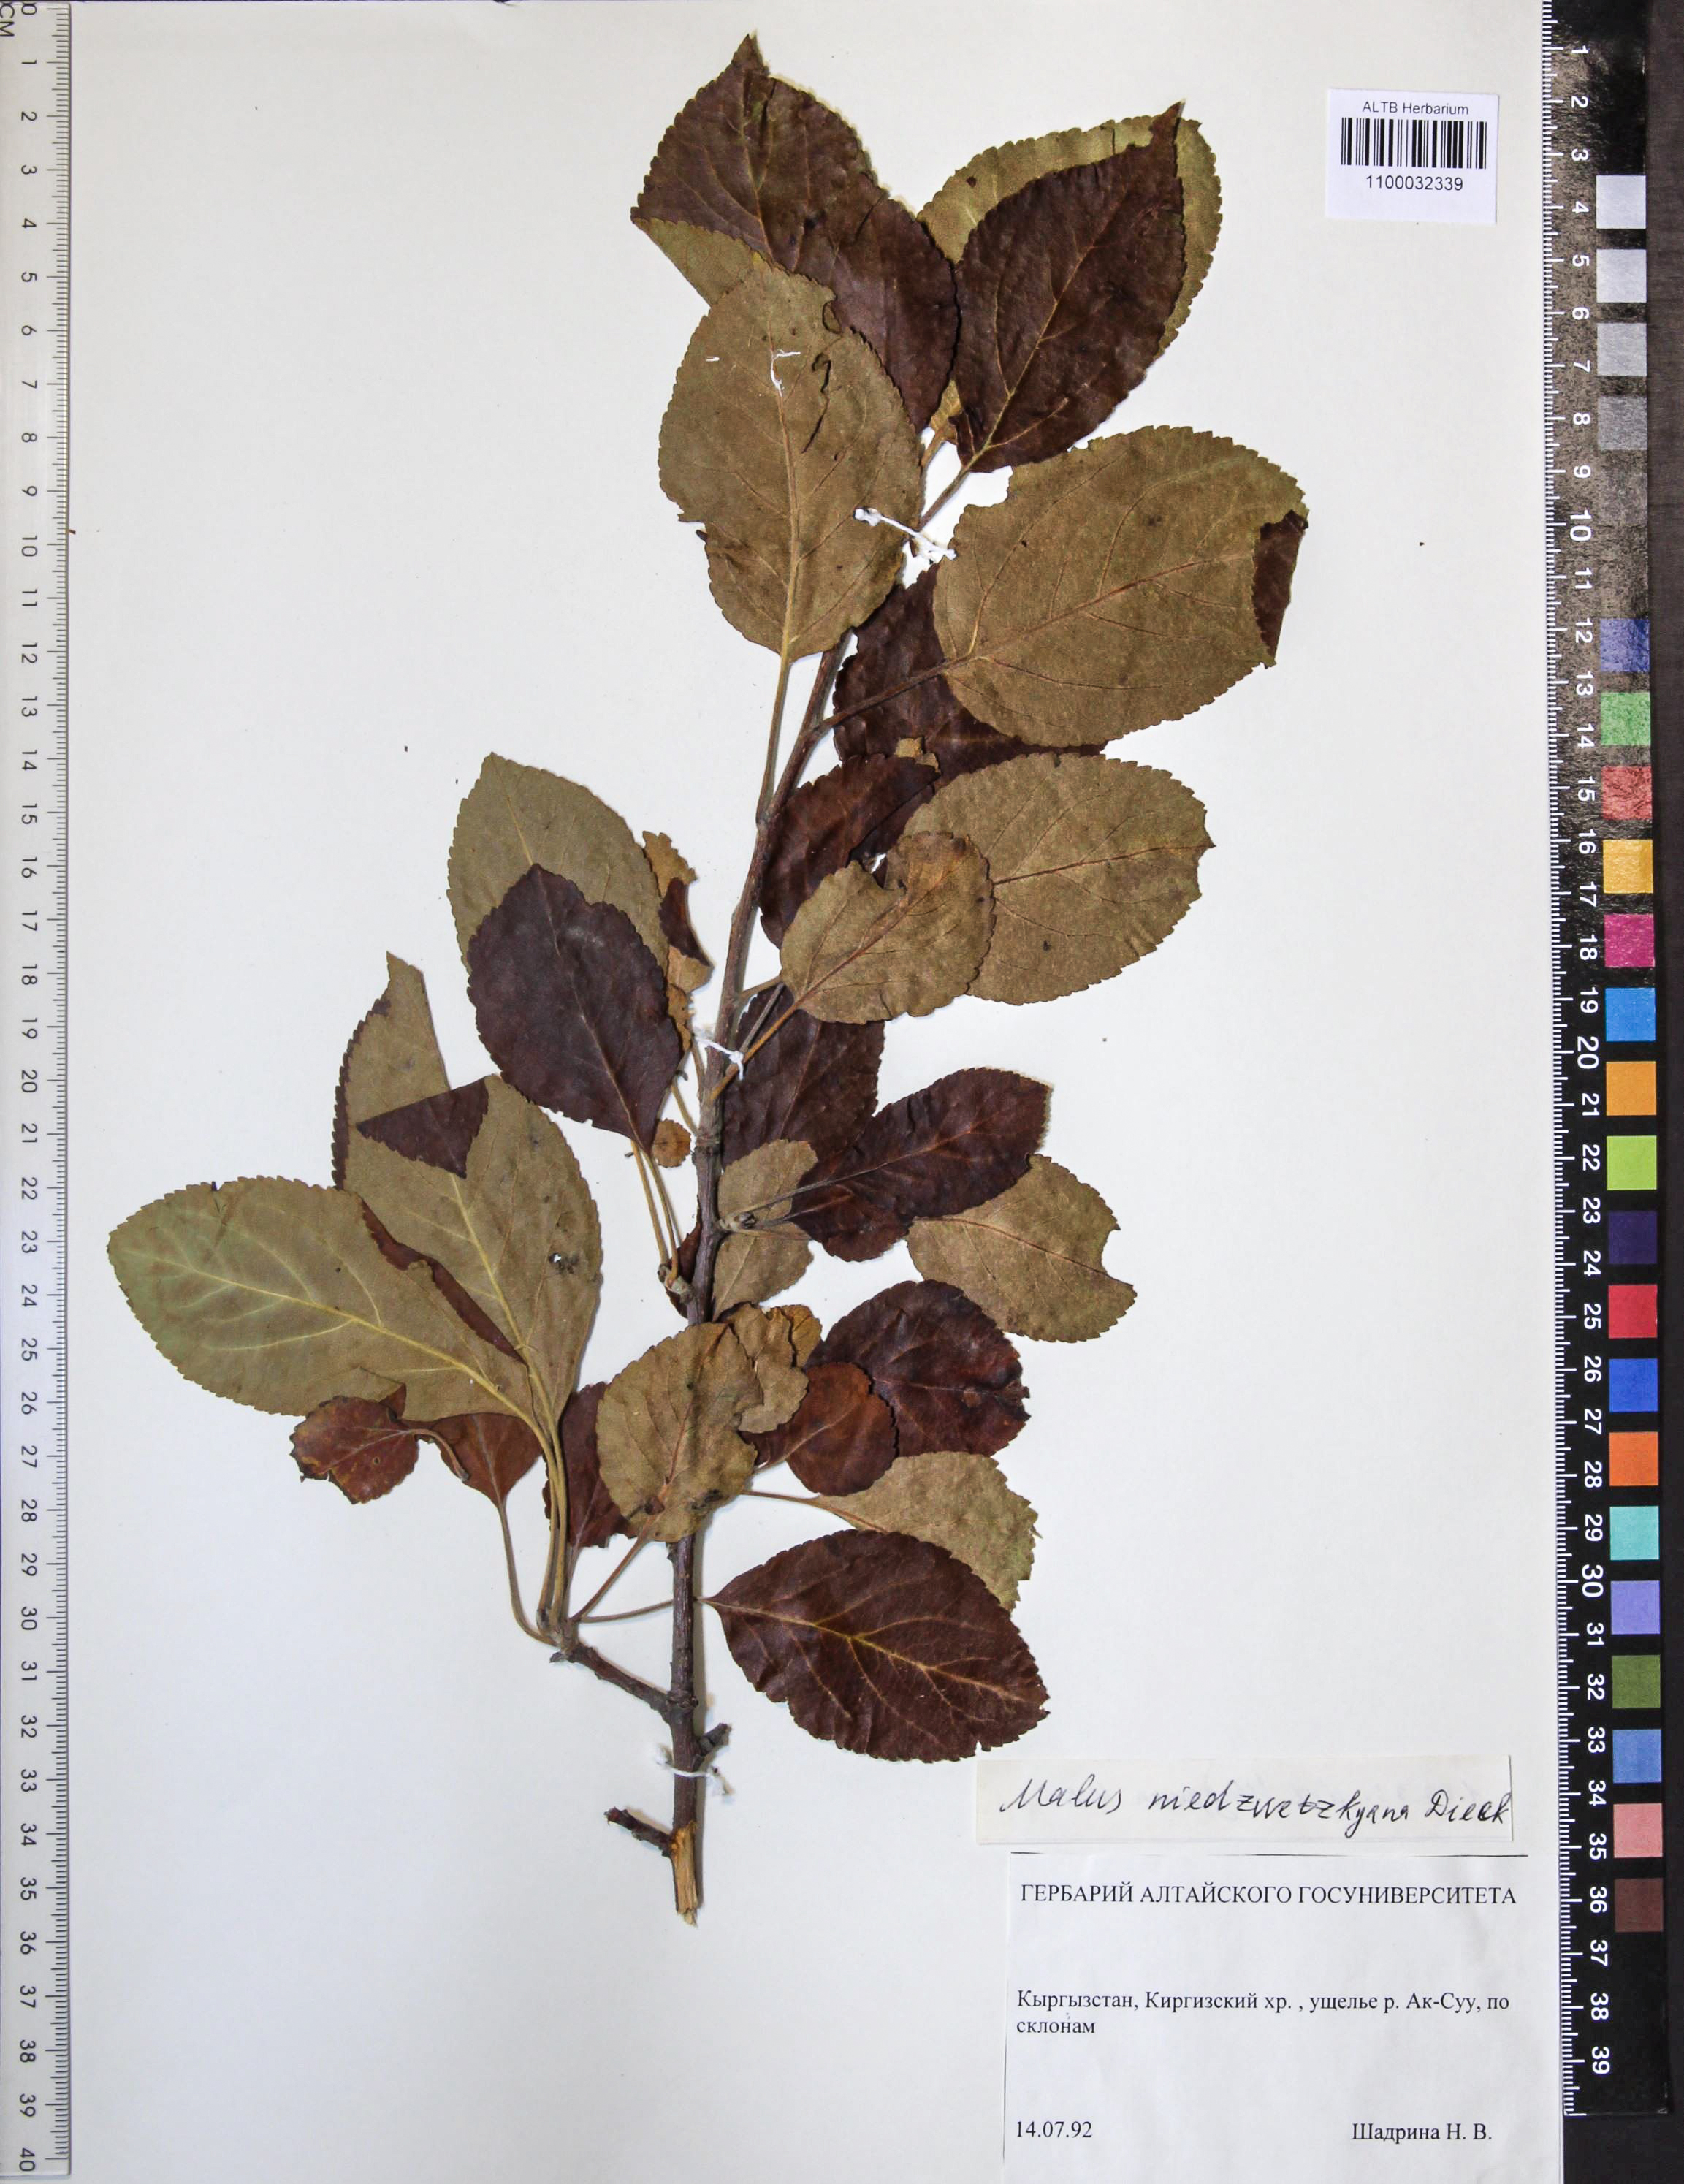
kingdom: Plantae
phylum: Tracheophyta
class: Magnoliopsida
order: Rosales
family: Rosaceae
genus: Malus
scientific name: Malus domestica
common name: Apple
